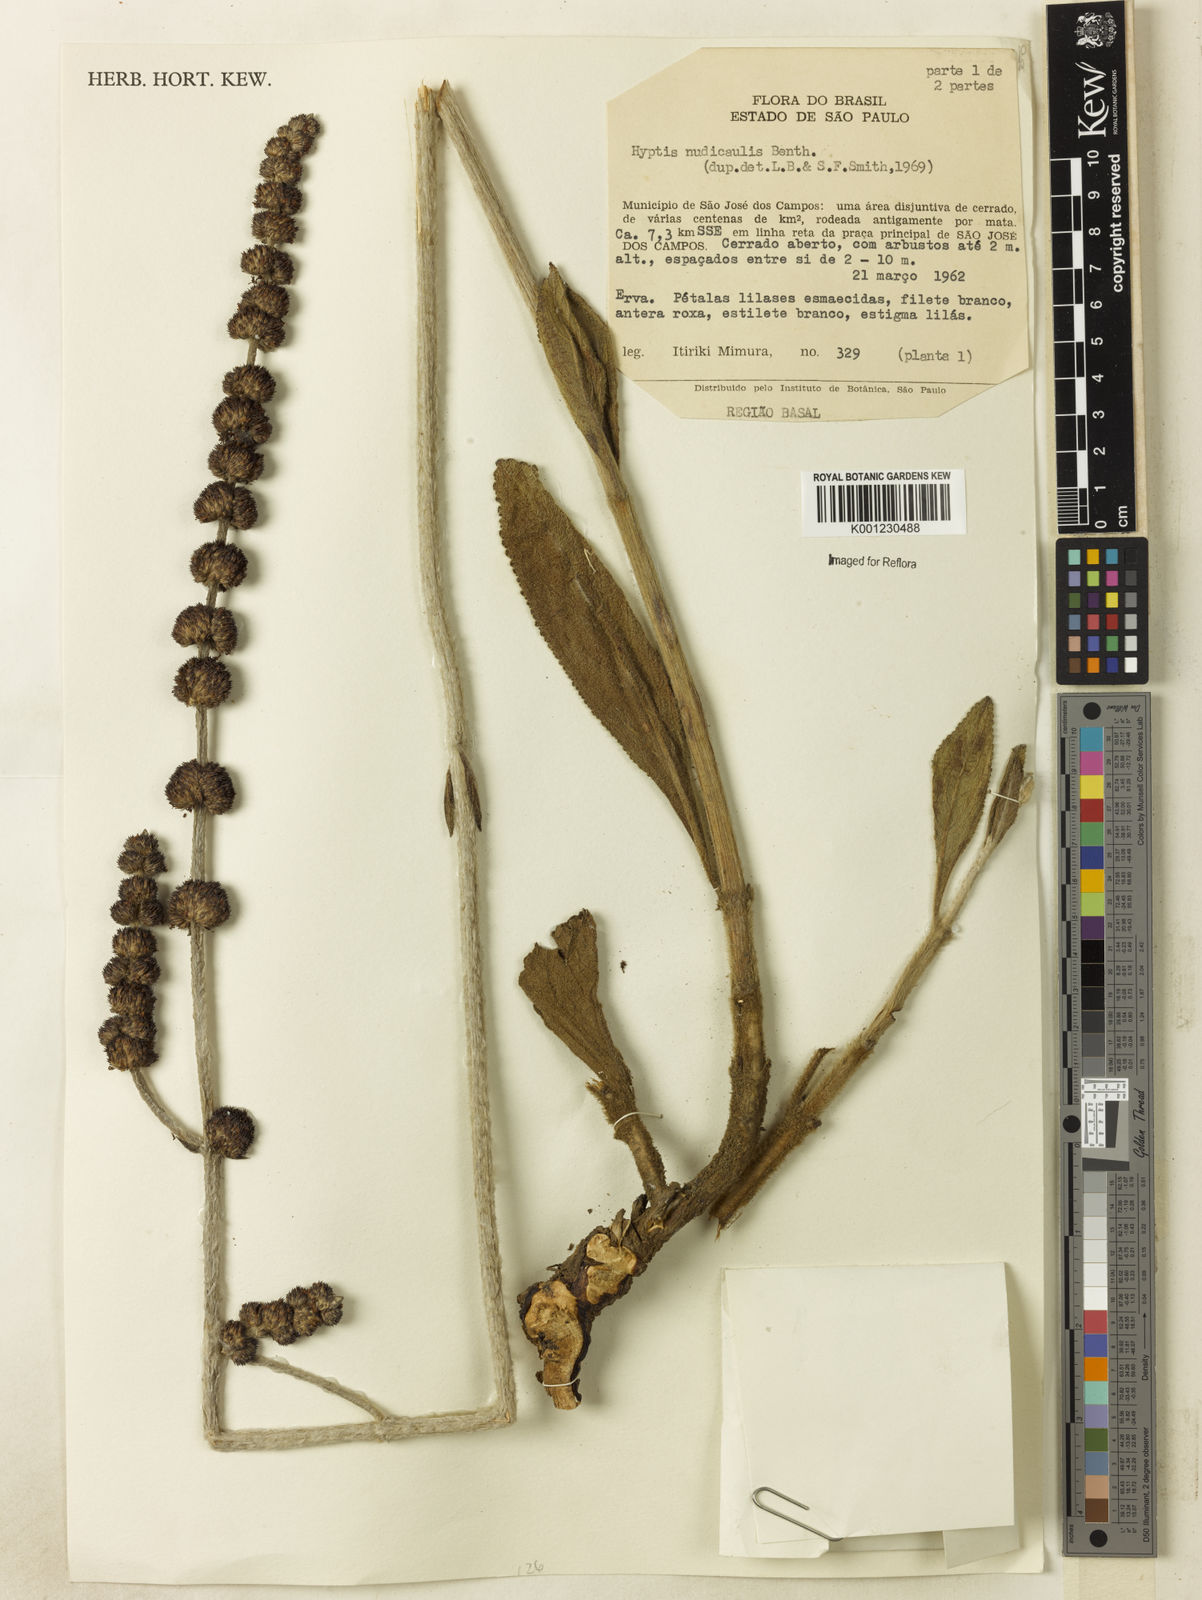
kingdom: Plantae
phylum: Tracheophyta
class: Magnoliopsida
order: Lamiales
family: Lamiaceae
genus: Hyptis
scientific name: Hyptis nudicaulis
